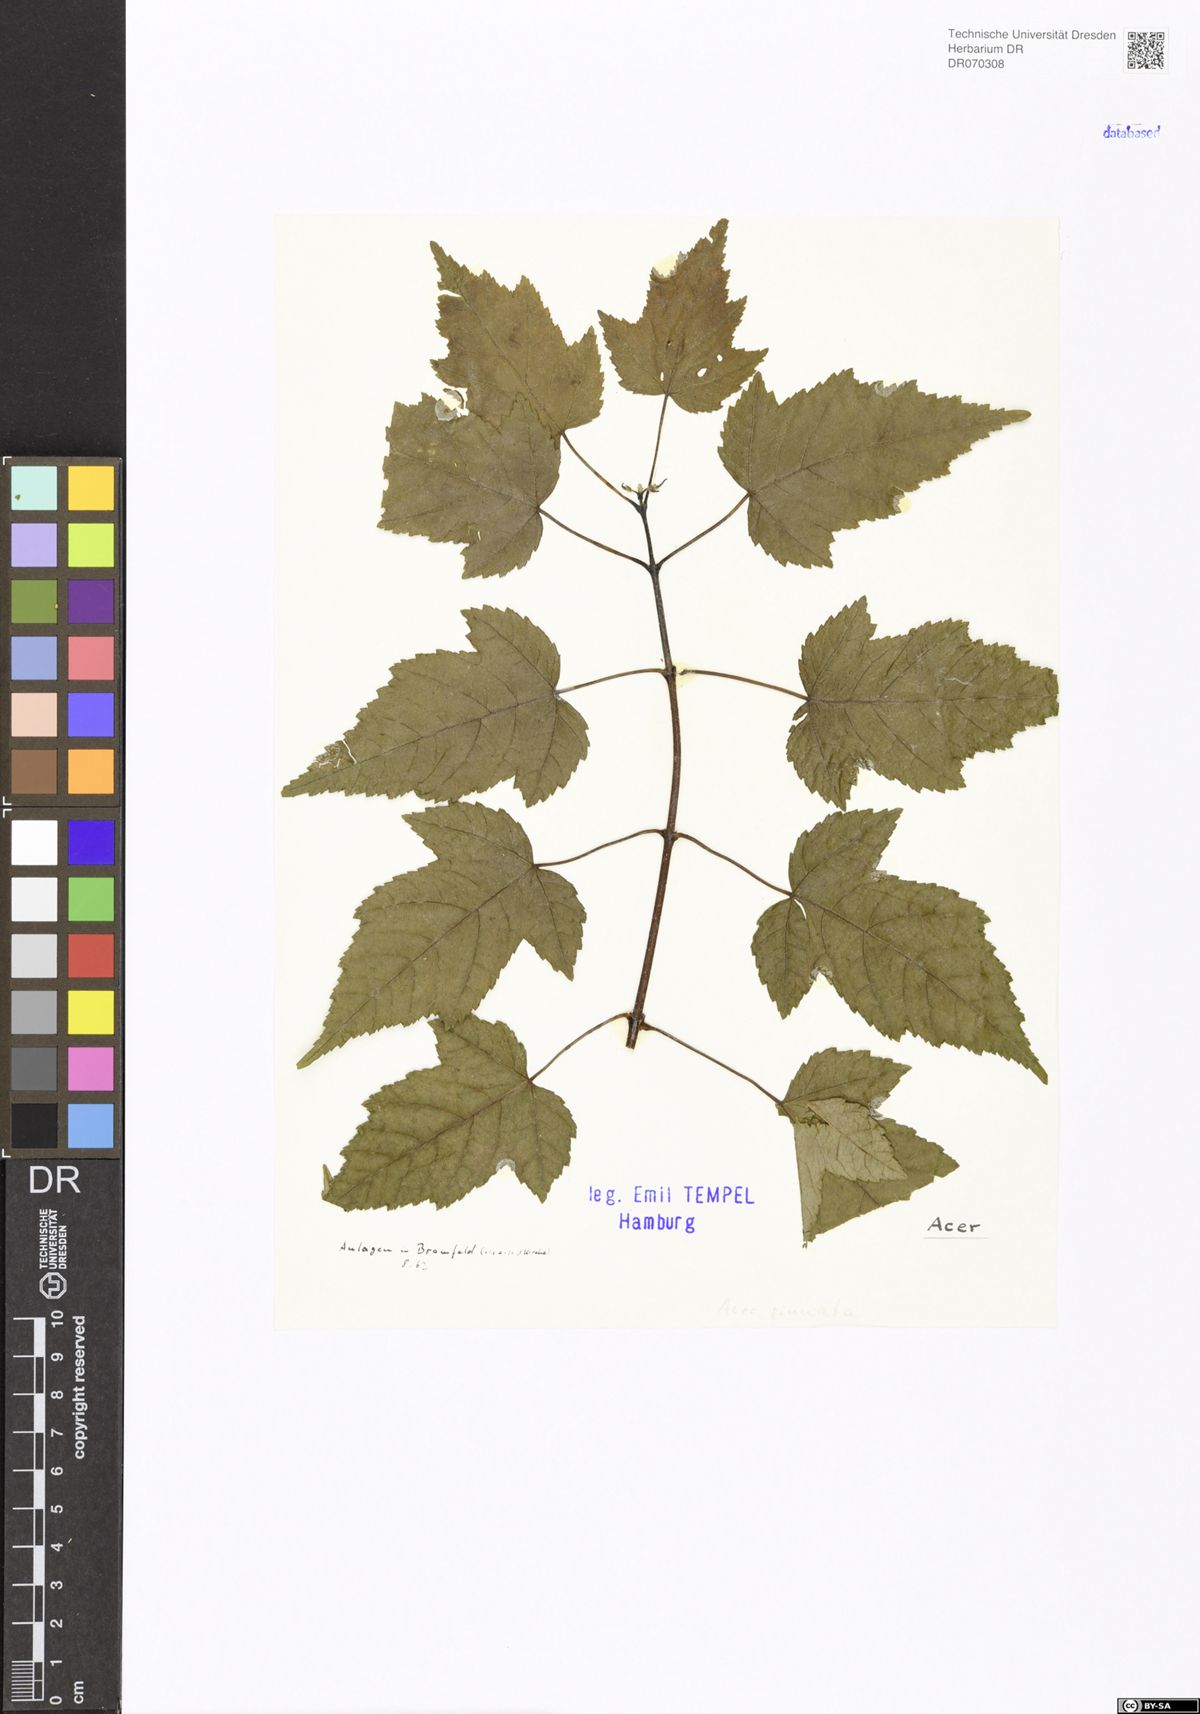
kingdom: Plantae
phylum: Tracheophyta
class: Magnoliopsida
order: Sapindales
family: Sapindaceae
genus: Acer
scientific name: Acer
